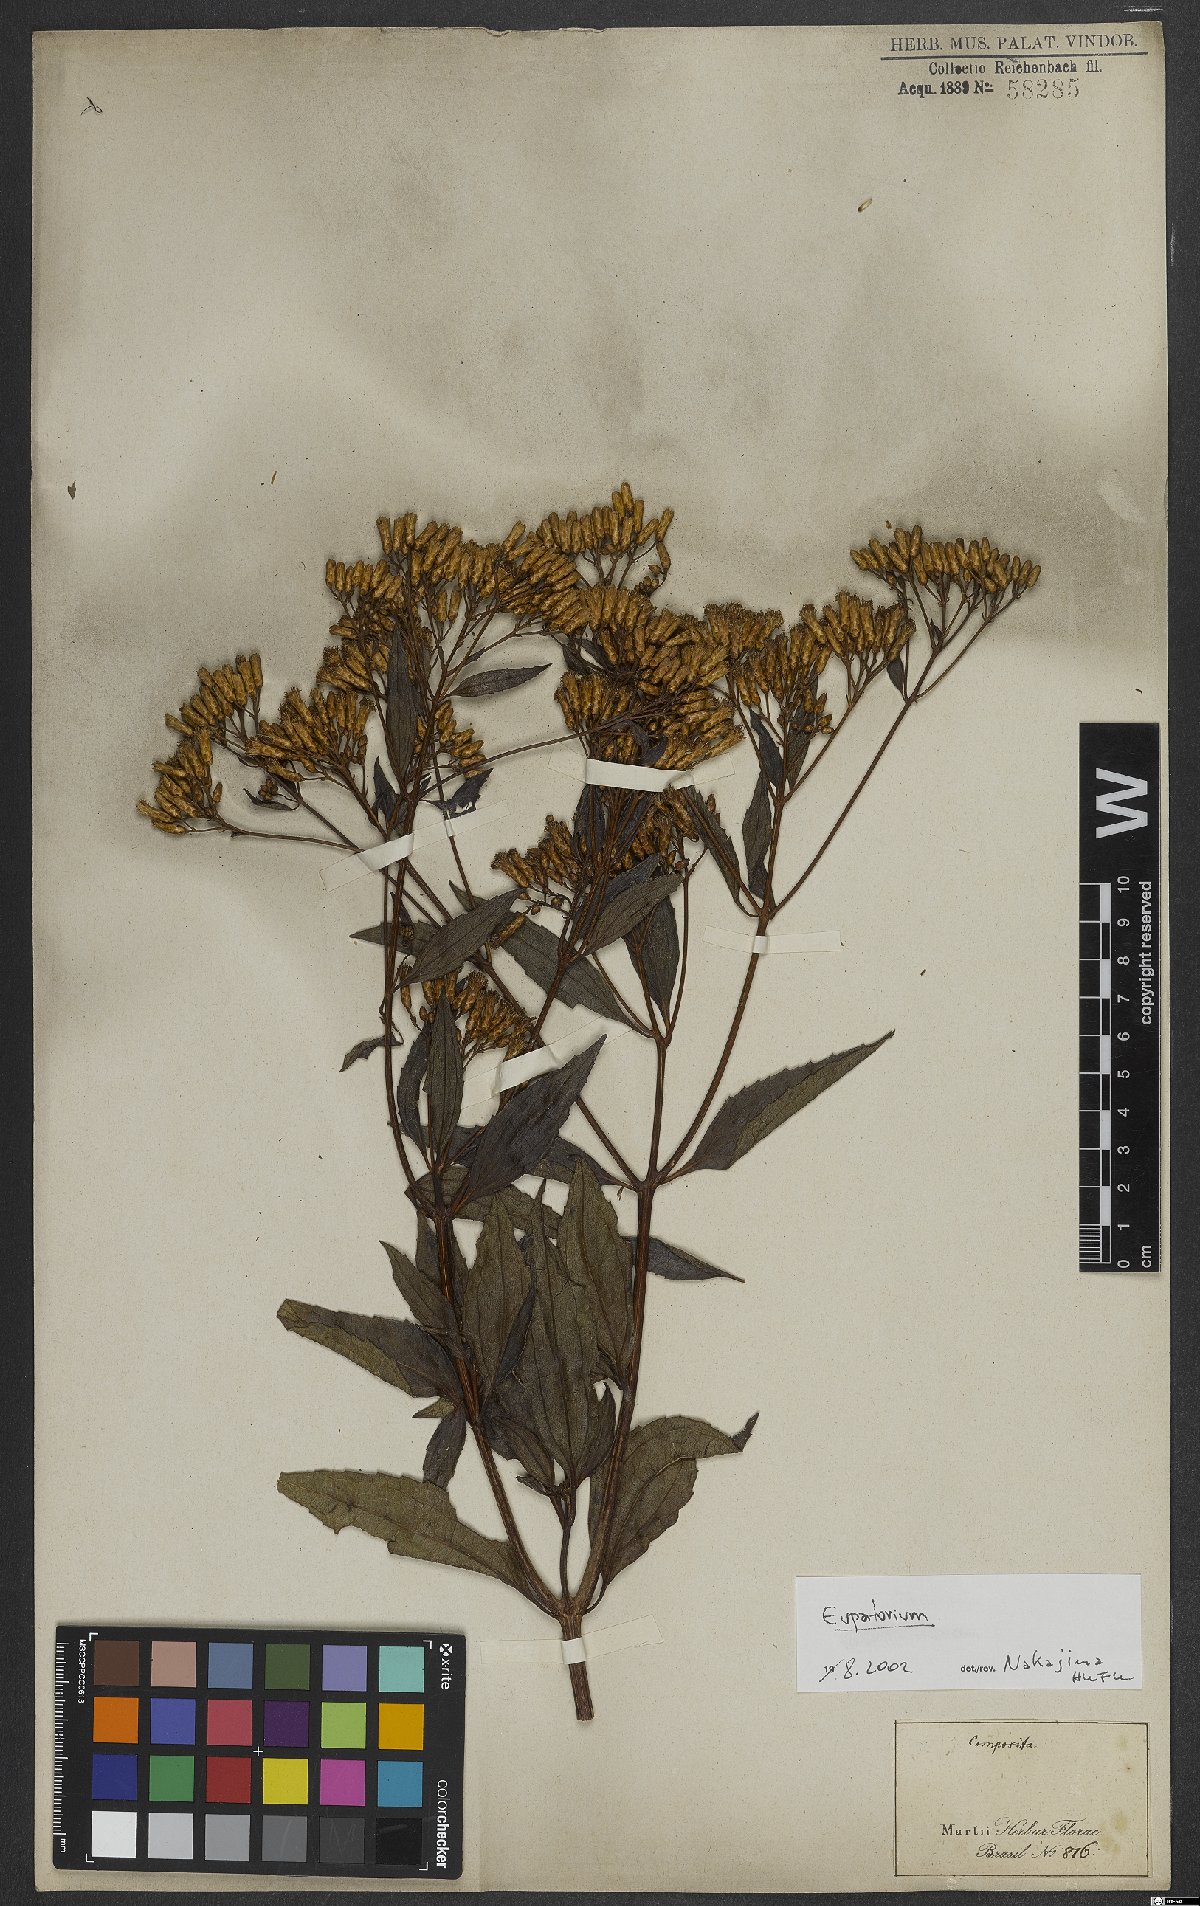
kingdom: Plantae
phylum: Tracheophyta
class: Magnoliopsida
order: Asterales
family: Asteraceae
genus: Eupatorium
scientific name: Eupatorium
